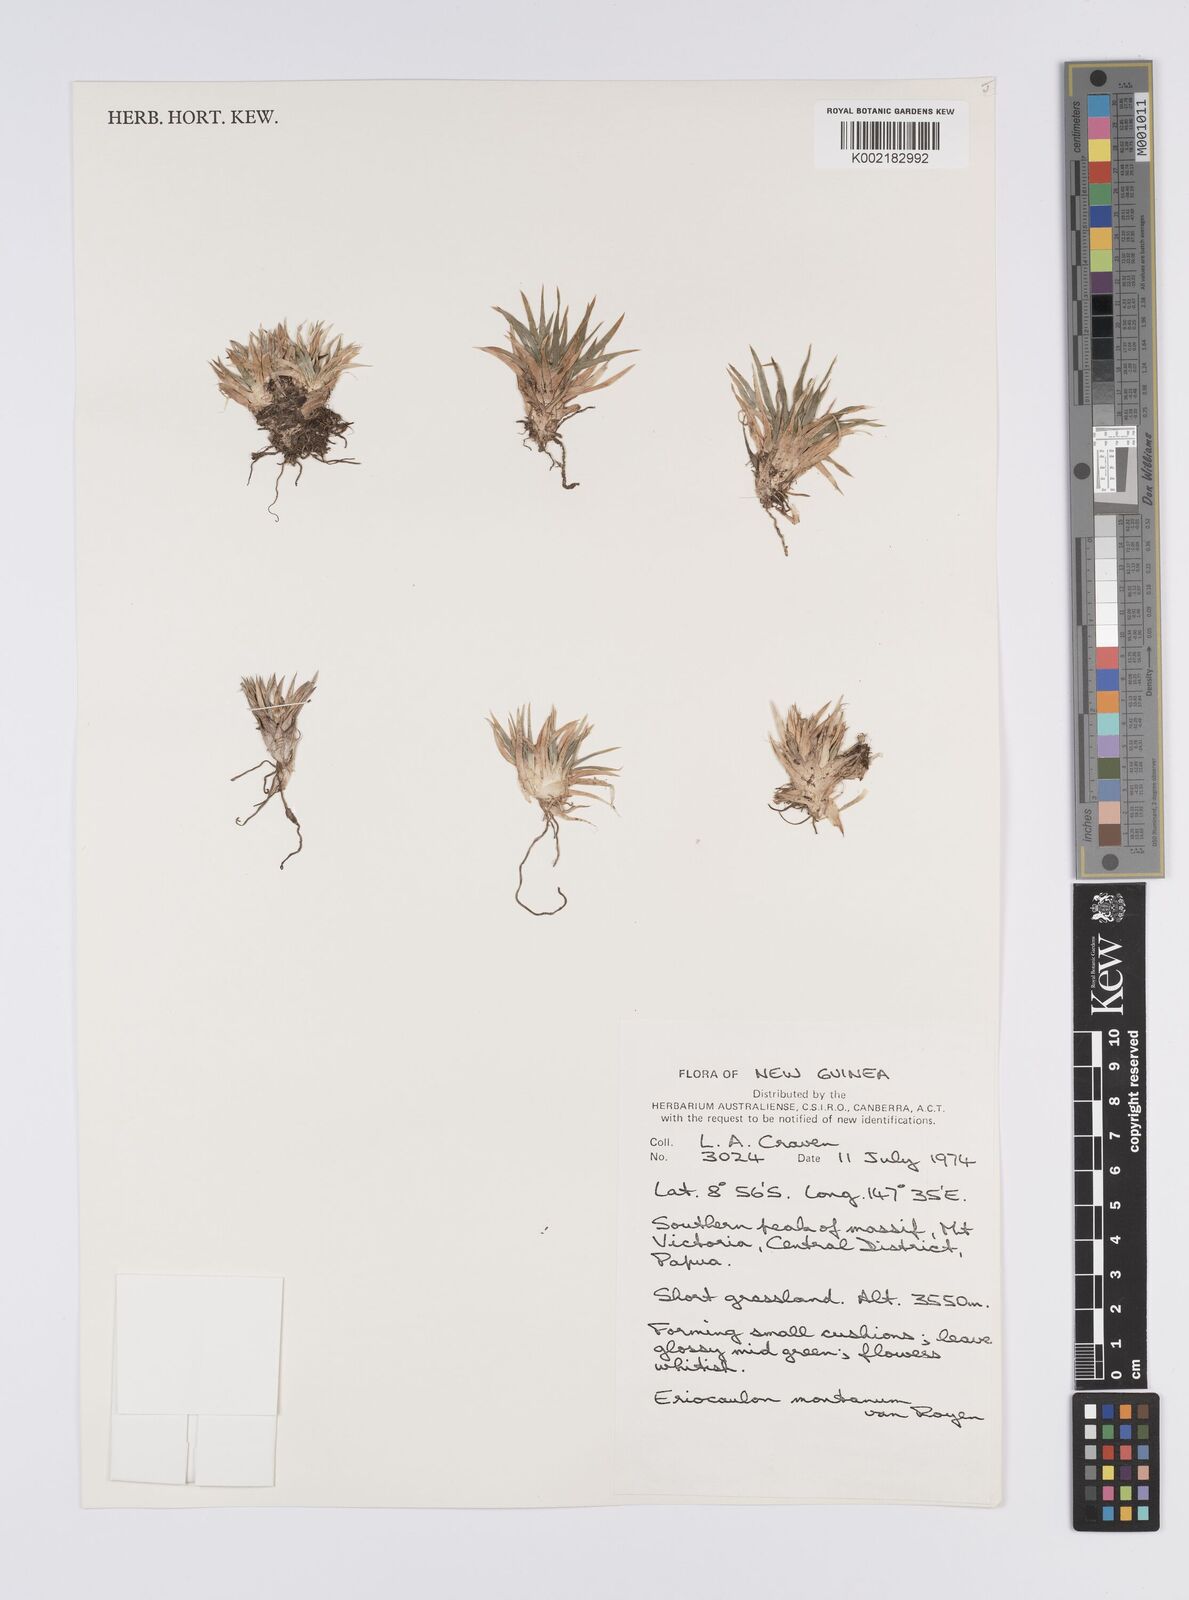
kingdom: Plantae
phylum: Tracheophyta
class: Liliopsida
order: Poales
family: Eriocaulaceae
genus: Eriocaulon
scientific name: Eriocaulon montanum
